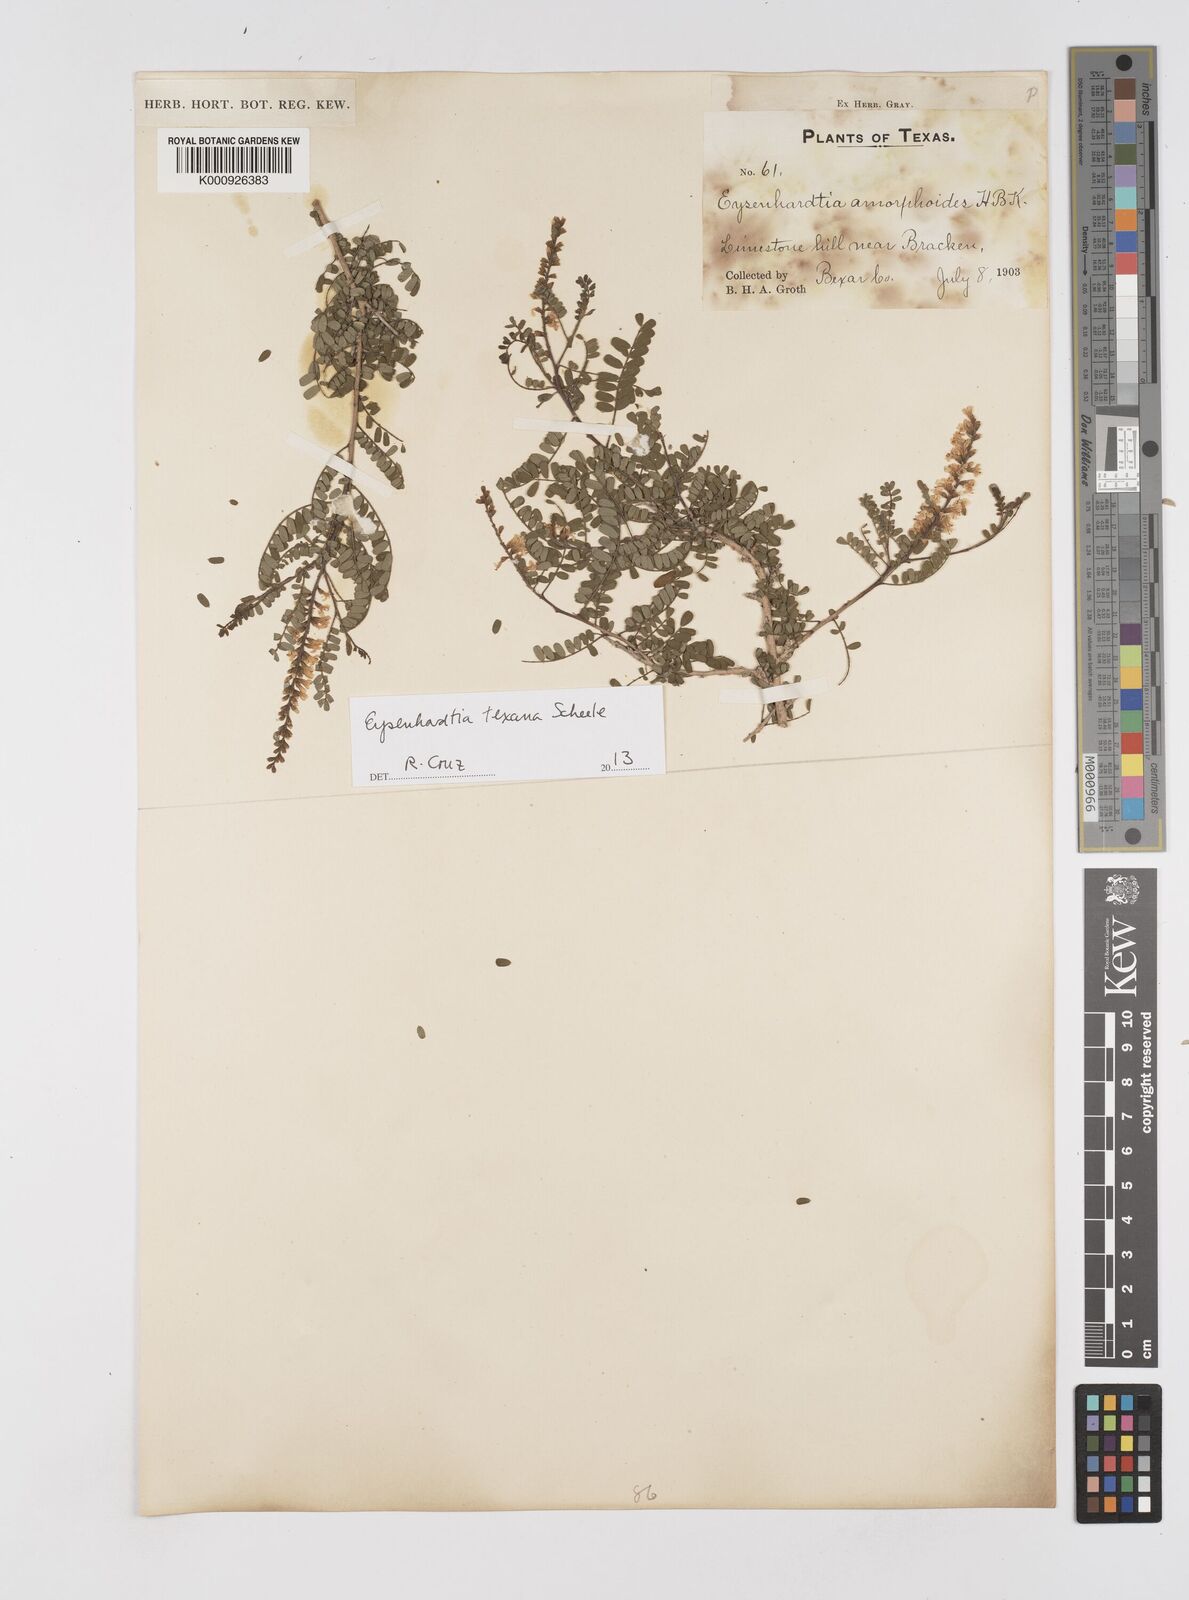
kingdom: Plantae
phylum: Tracheophyta
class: Magnoliopsida
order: Fabales
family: Fabaceae
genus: Eysenhardtia
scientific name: Eysenhardtia texana
